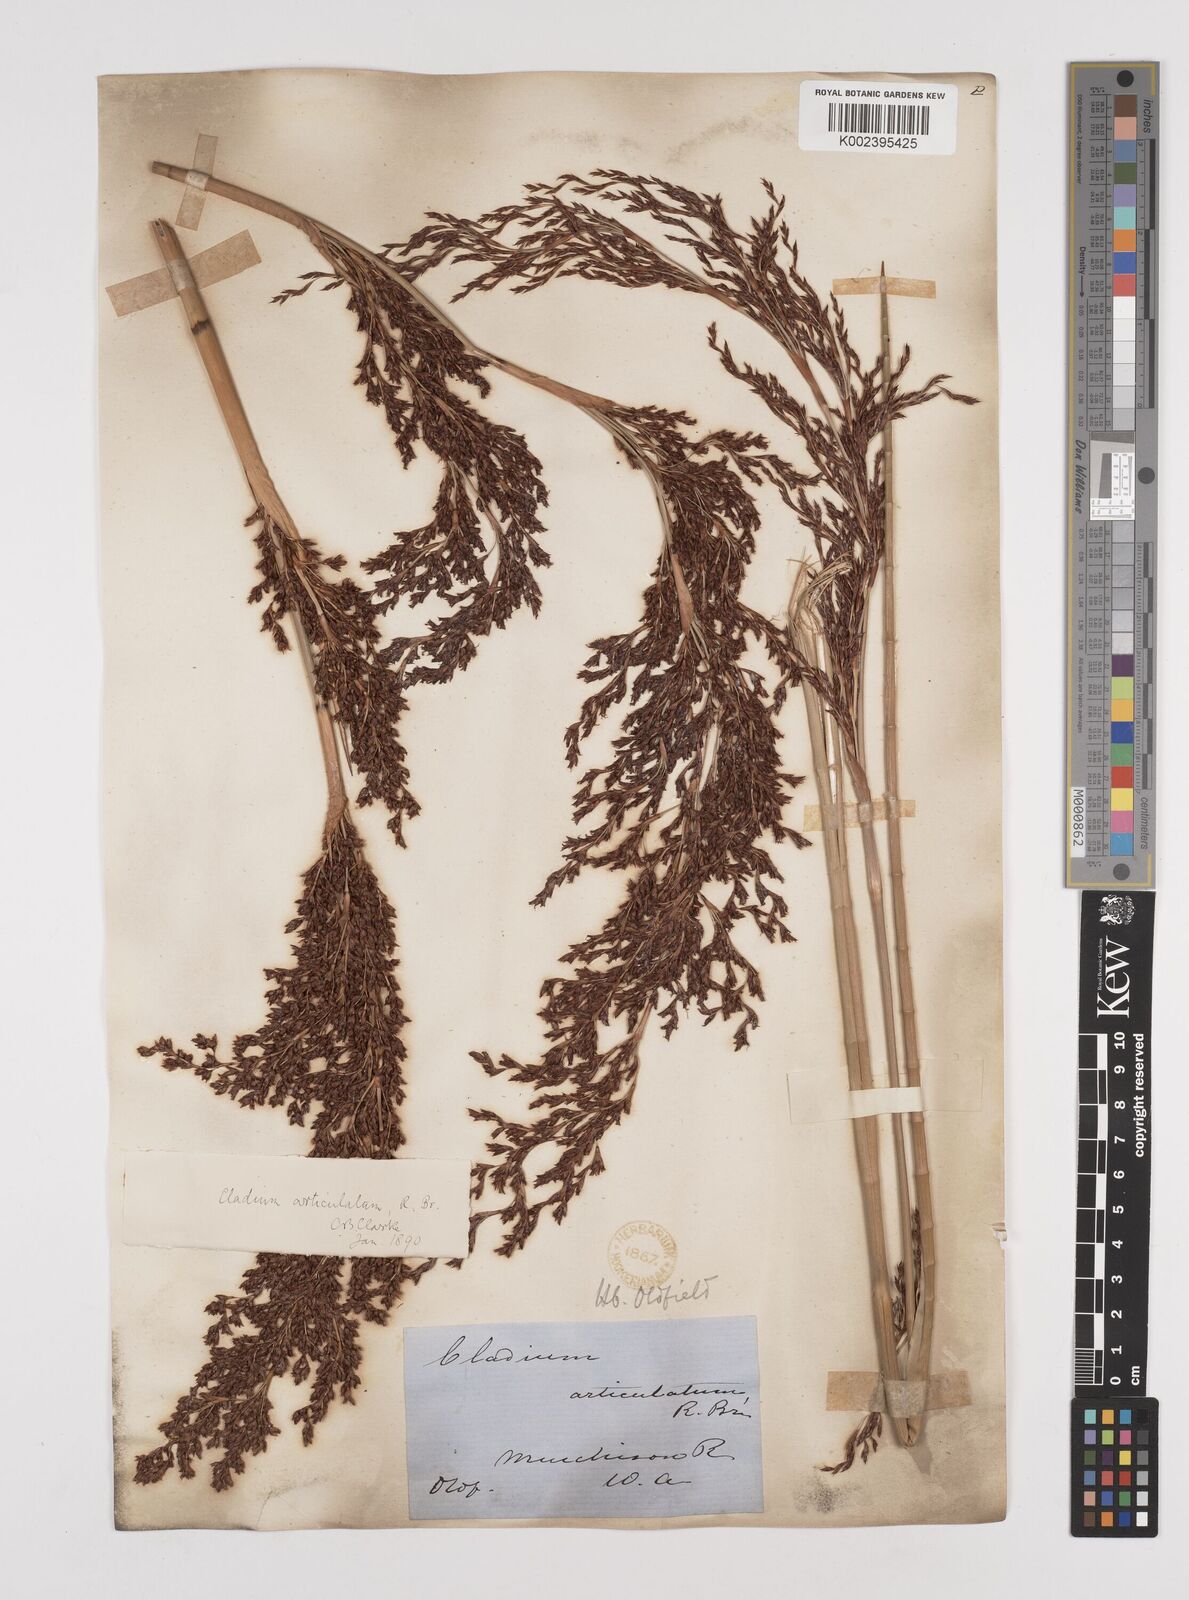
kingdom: Plantae
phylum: Tracheophyta
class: Liliopsida
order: Poales
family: Cyperaceae
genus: Machaerina
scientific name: Machaerina articulata
